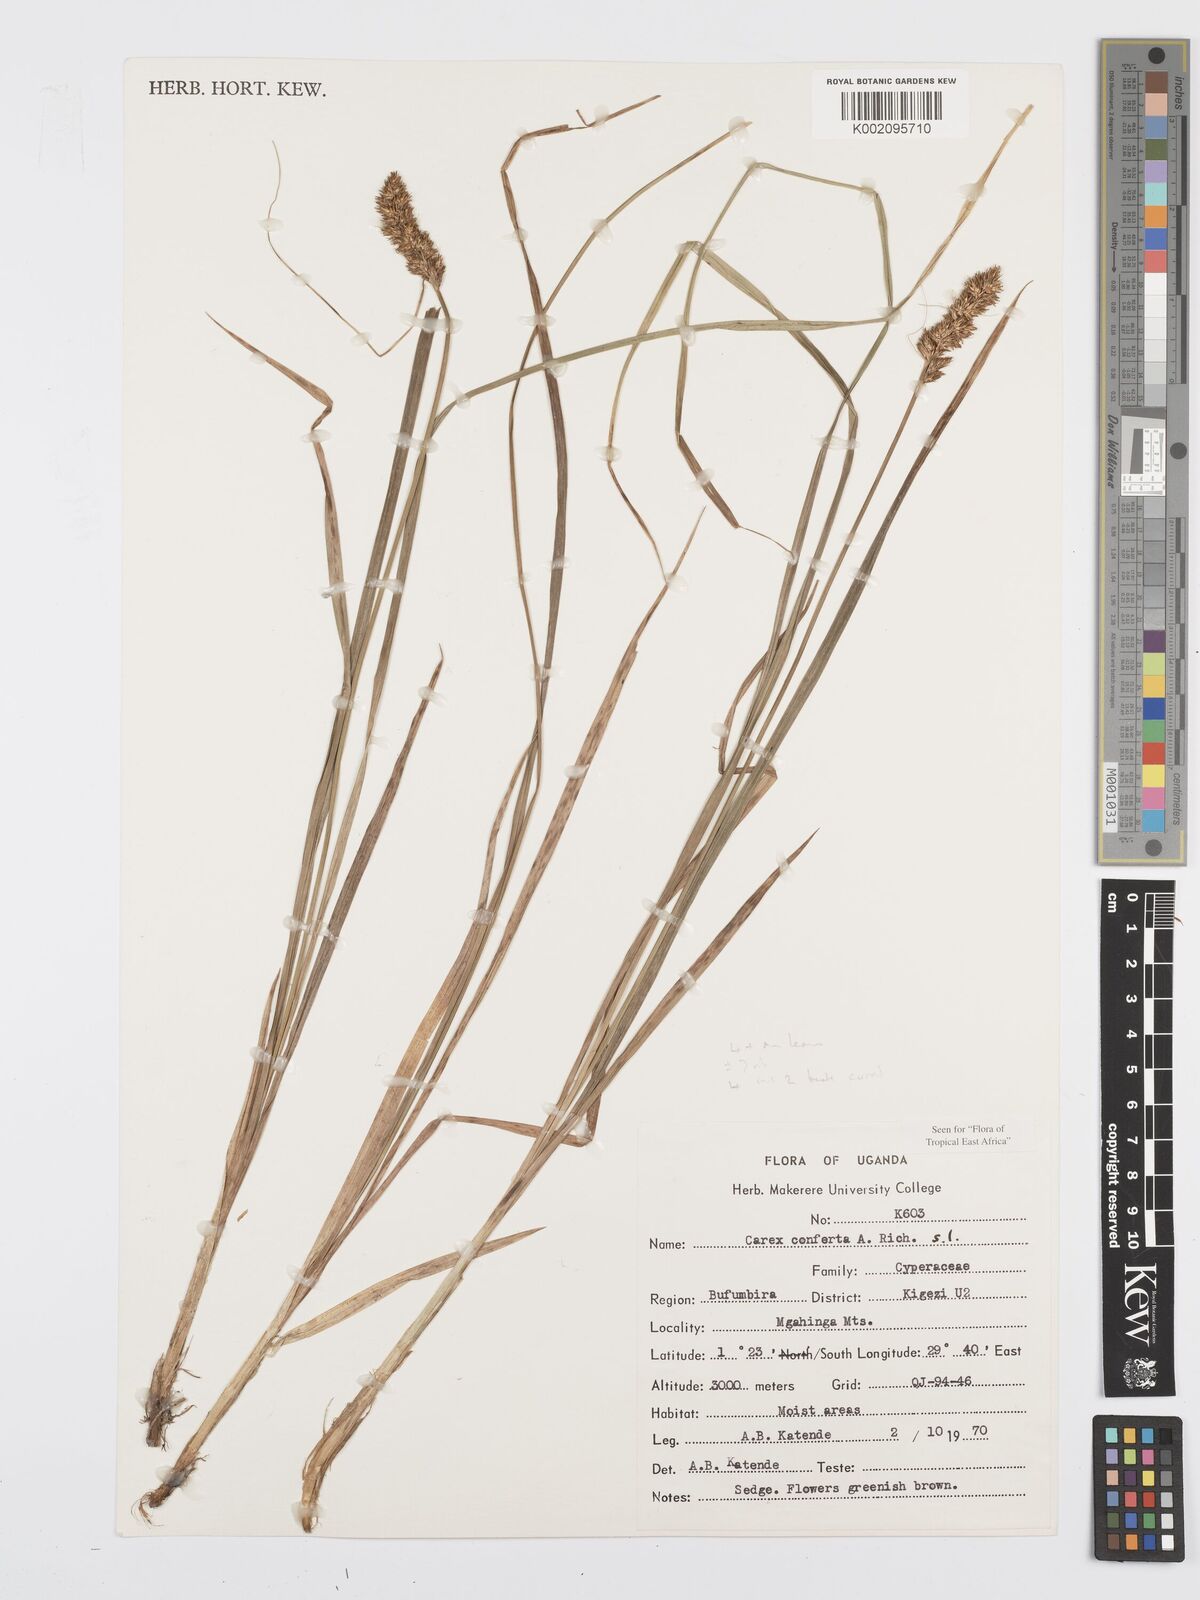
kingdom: Plantae
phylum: Tracheophyta
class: Liliopsida
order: Poales
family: Cyperaceae
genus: Carex
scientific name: Carex conferta
